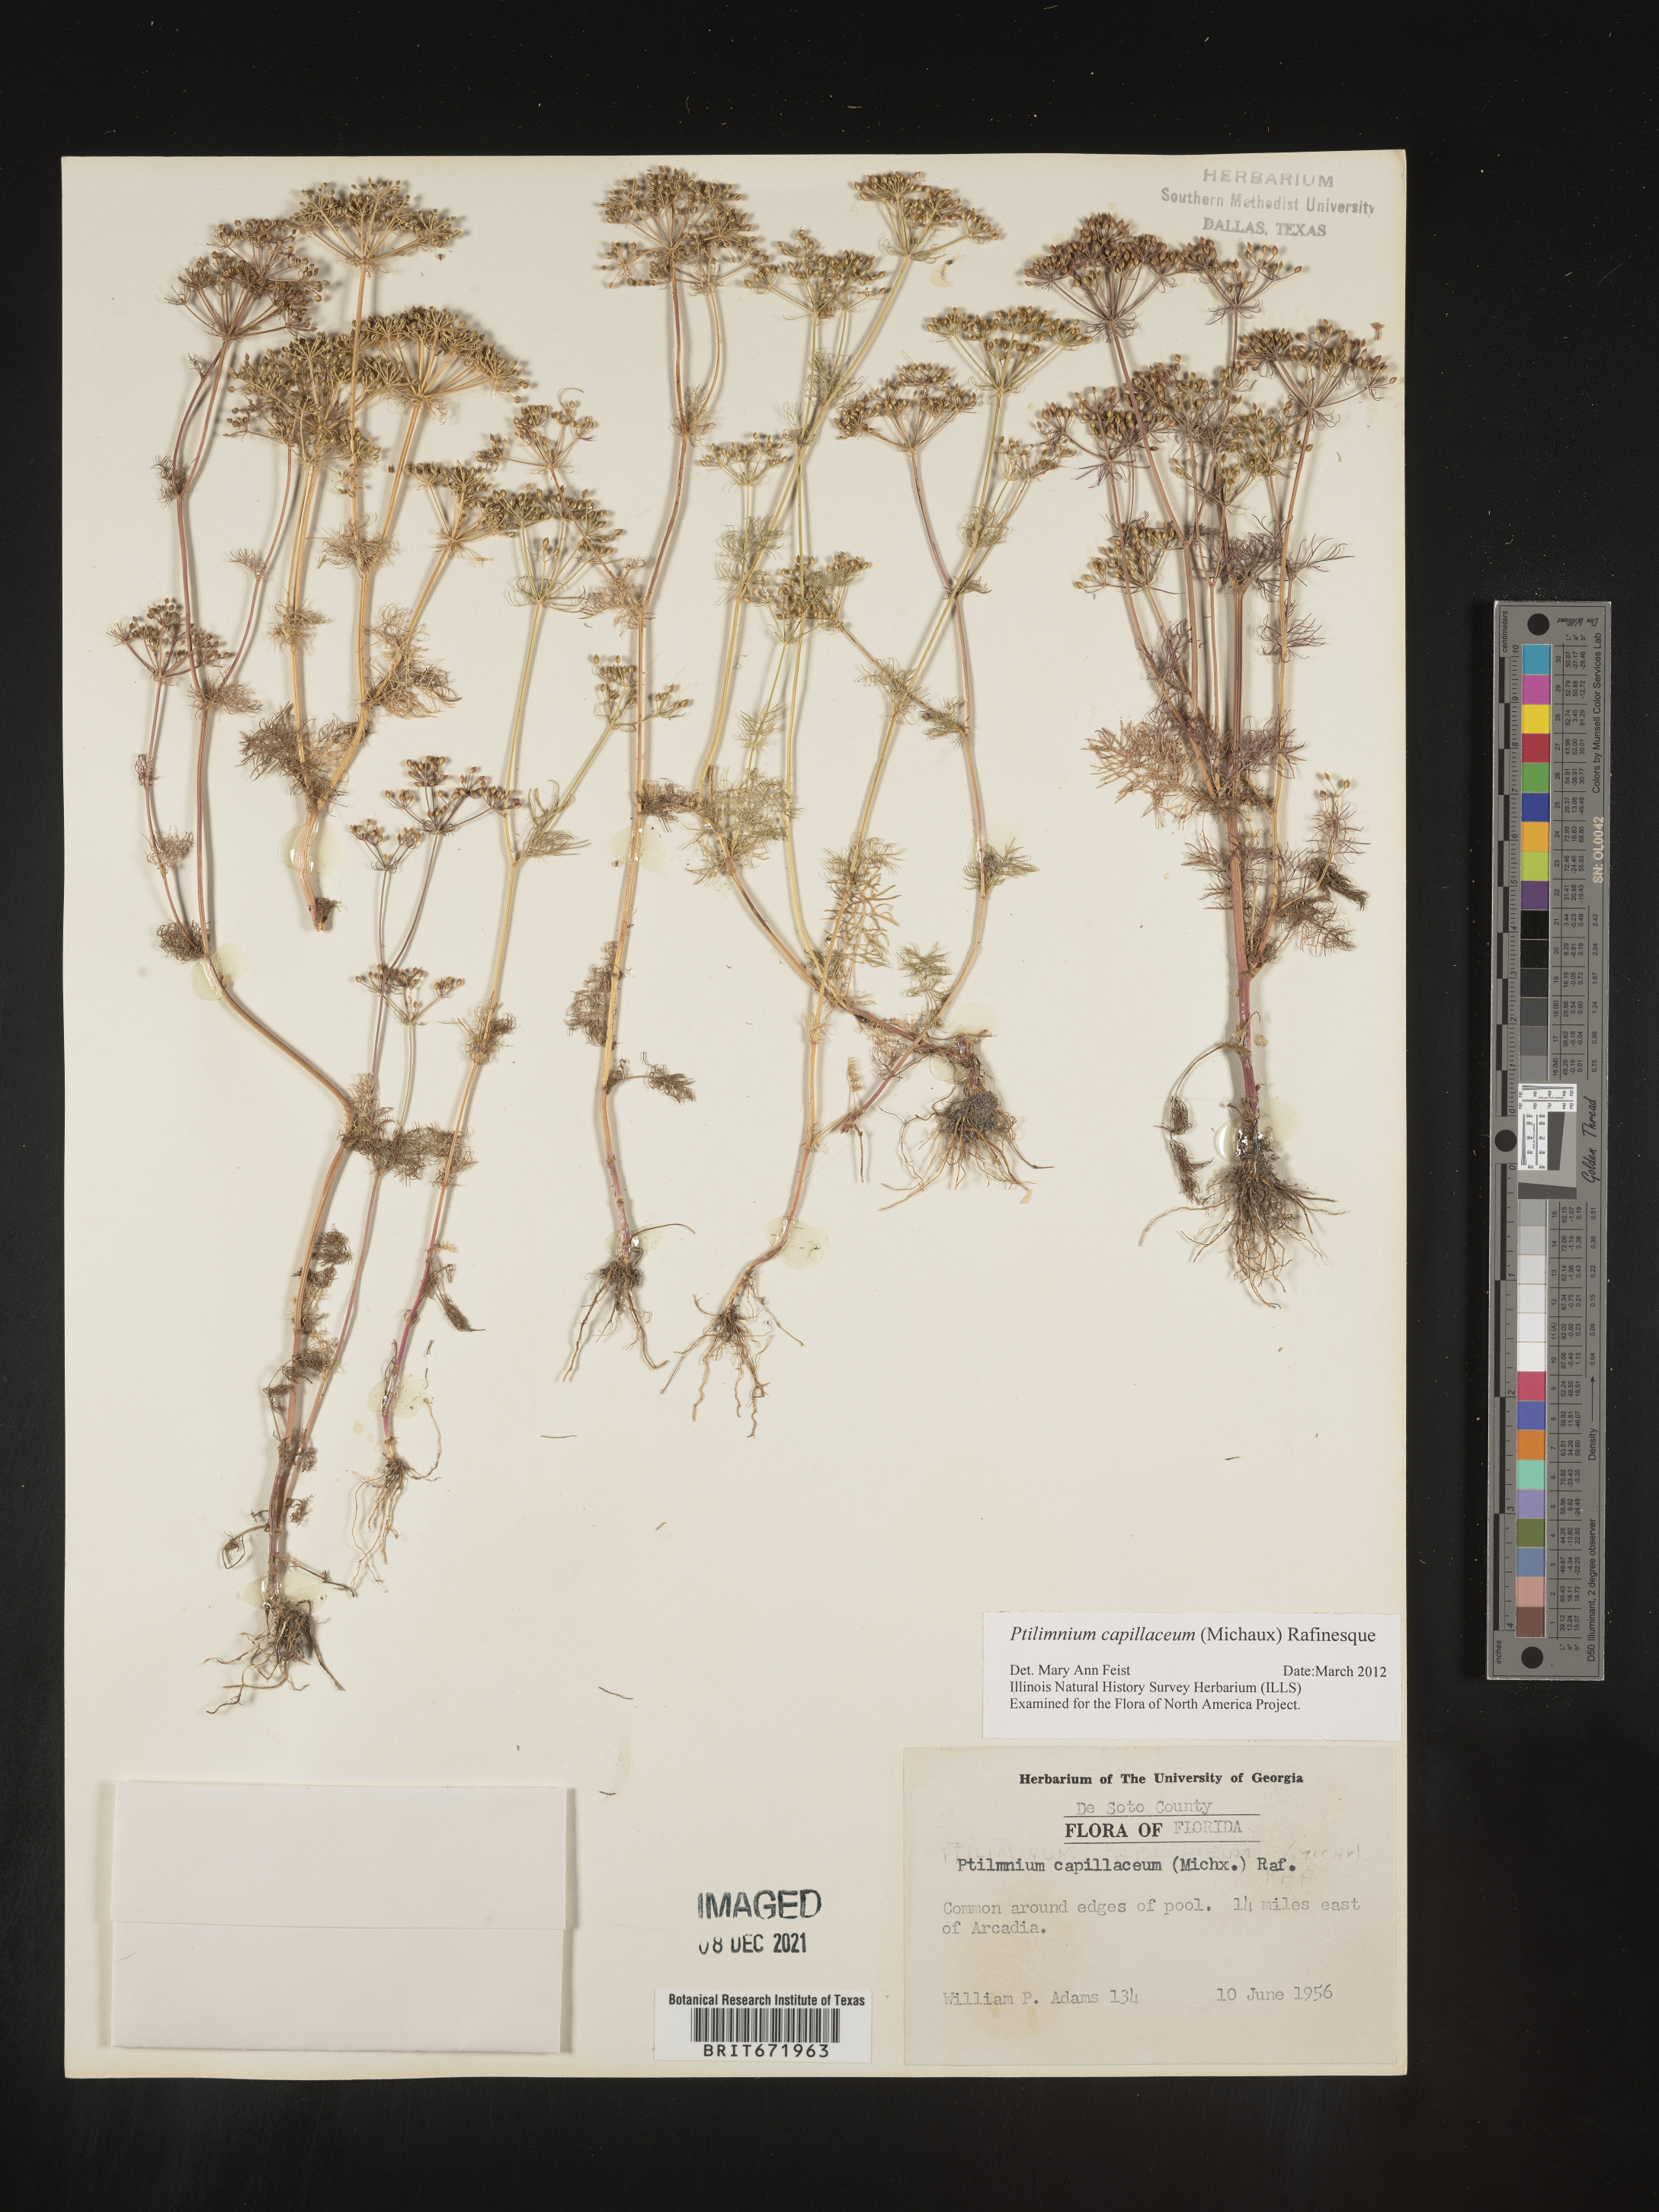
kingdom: Plantae
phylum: Tracheophyta
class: Magnoliopsida
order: Apiales
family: Apiaceae
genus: Ptilimnium
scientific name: Ptilimnium capillaceum
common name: Herbwilliam
